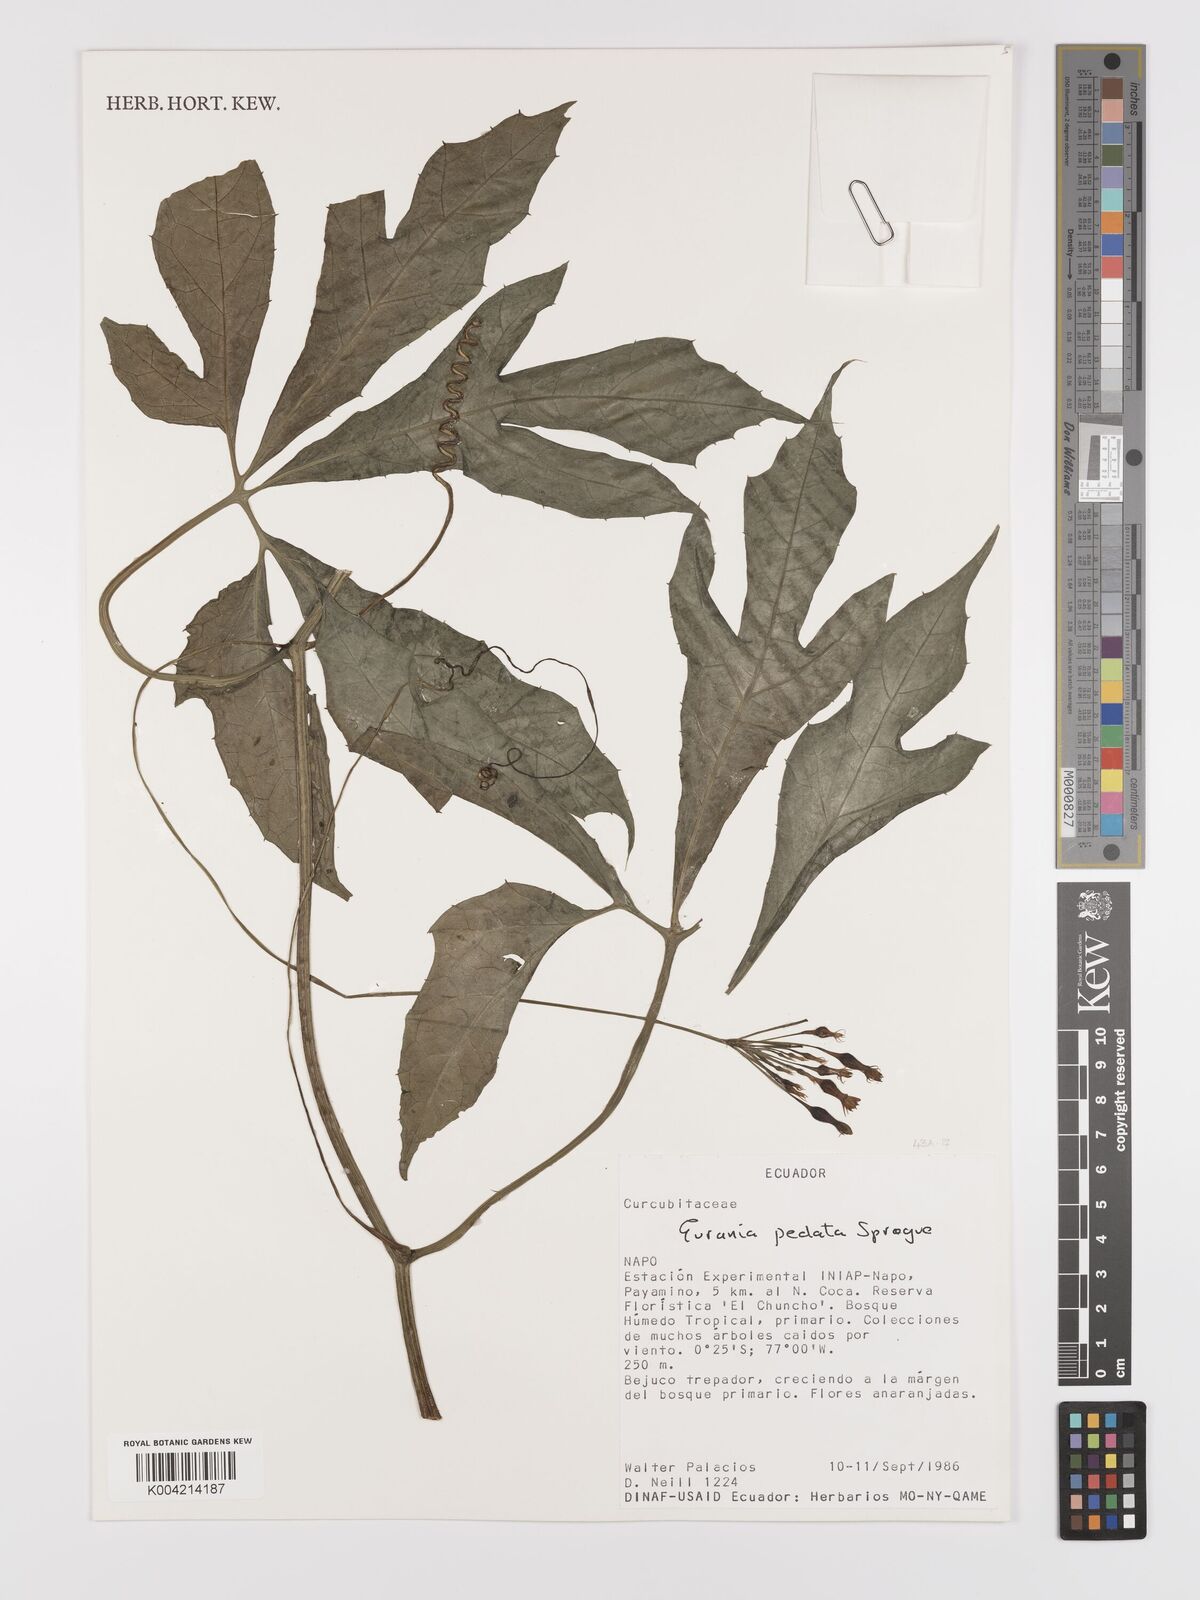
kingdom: Plantae
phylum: Tracheophyta
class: Magnoliopsida
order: Cucurbitales
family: Cucurbitaceae
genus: Gurania
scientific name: Gurania pedata
